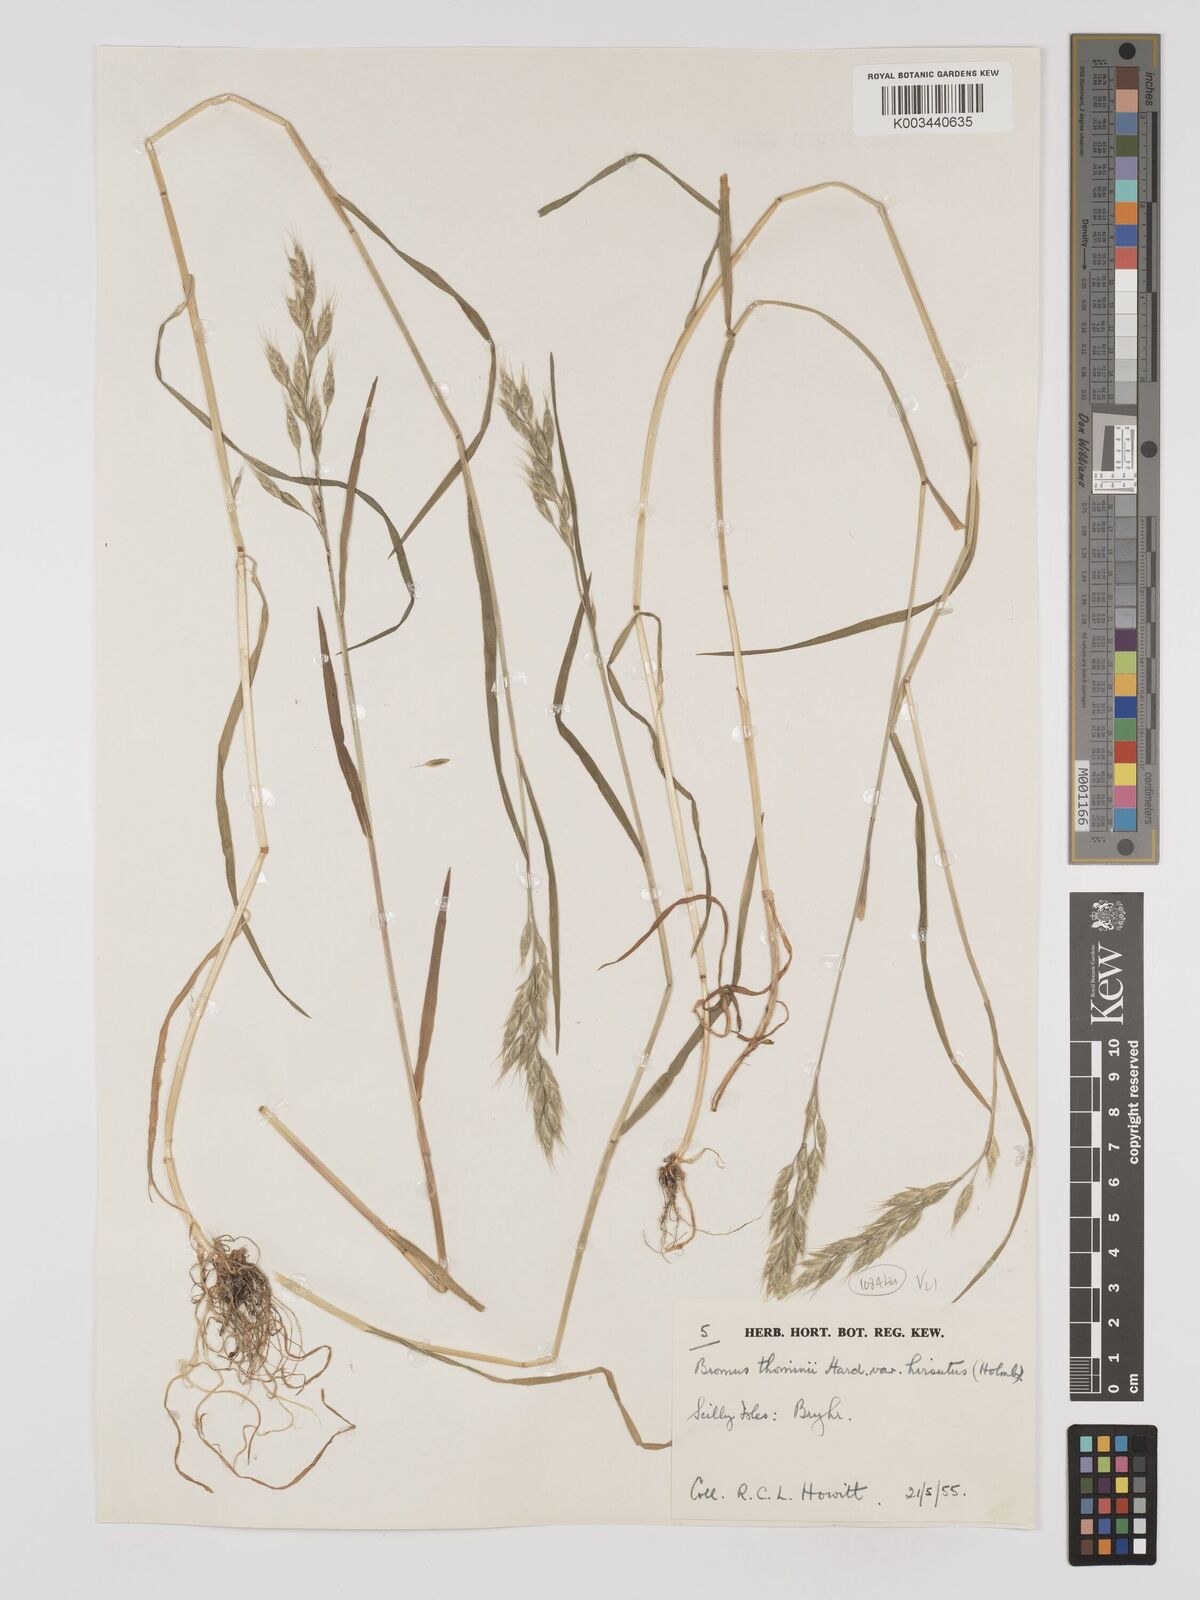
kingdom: Plantae
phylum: Tracheophyta
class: Liliopsida
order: Poales
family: Poaceae
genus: Bromus
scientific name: Bromus hordeaceus
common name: Soft brome
